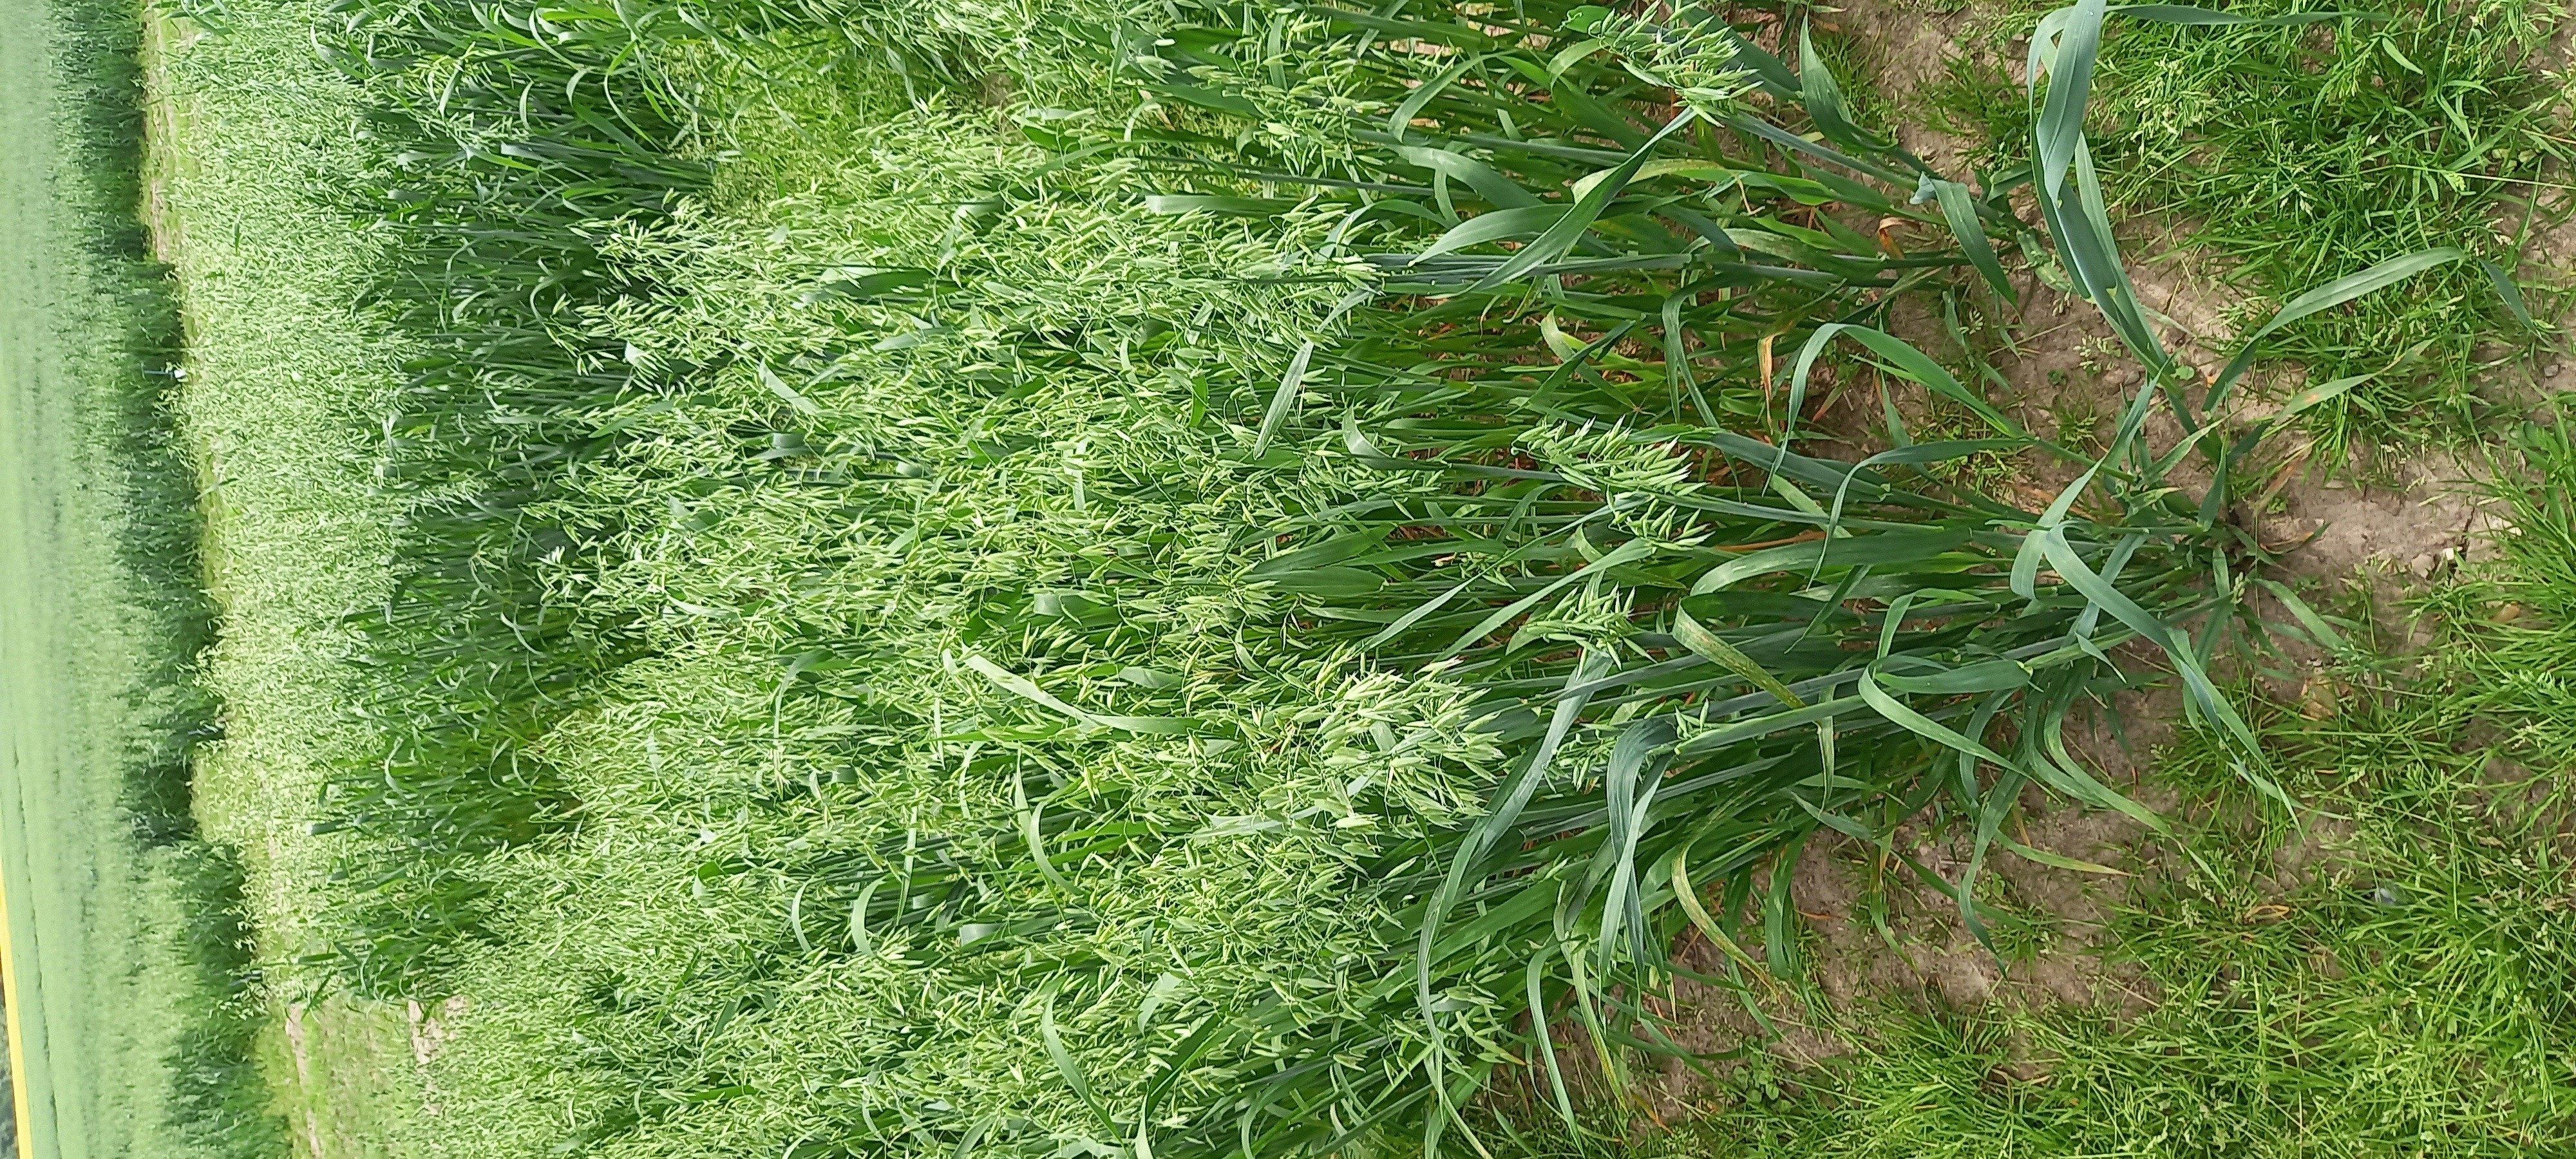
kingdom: Plantae
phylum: Tracheophyta
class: Liliopsida
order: Poales
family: Poaceae
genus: Avena
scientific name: Avena sativa
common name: Oat
